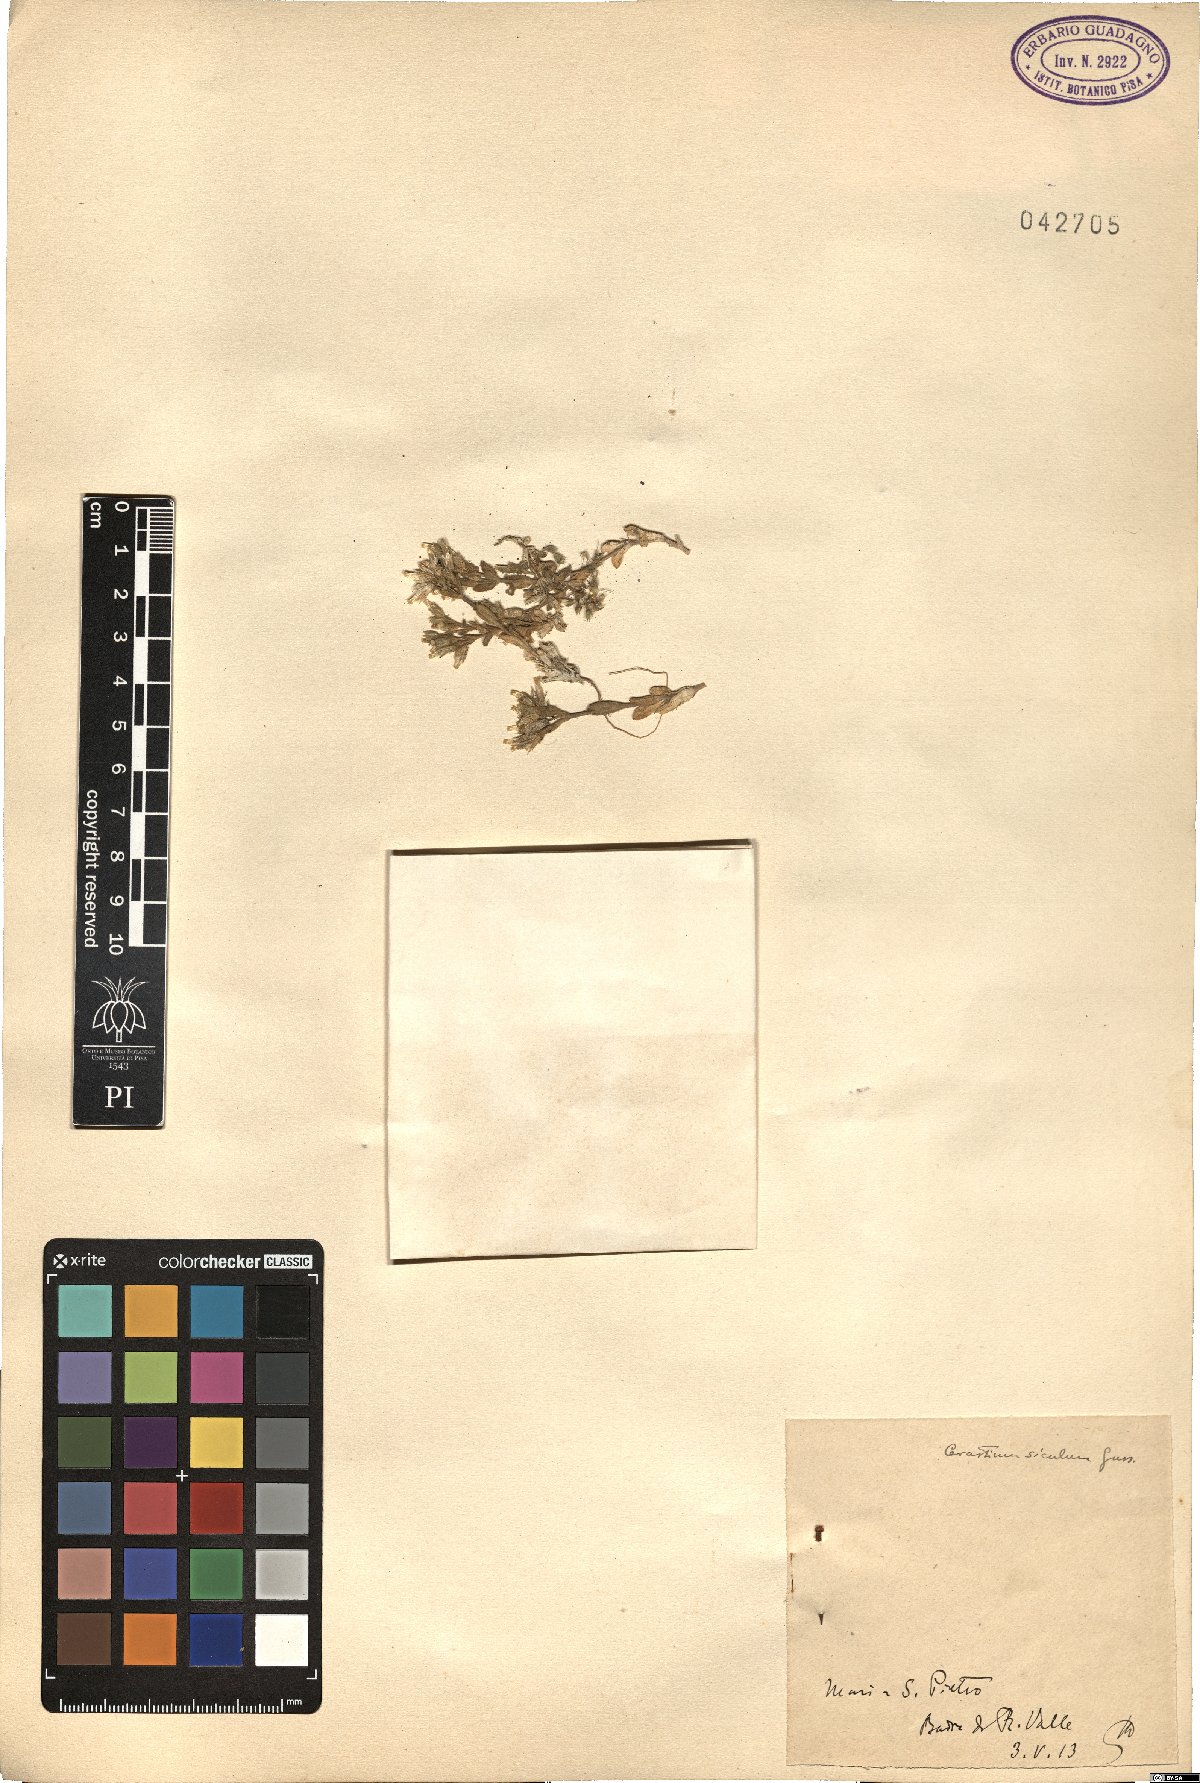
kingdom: Plantae
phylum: Tracheophyta
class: Magnoliopsida
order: Caryophyllales
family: Caryophyllaceae
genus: Cerastium
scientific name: Cerastium siculum
